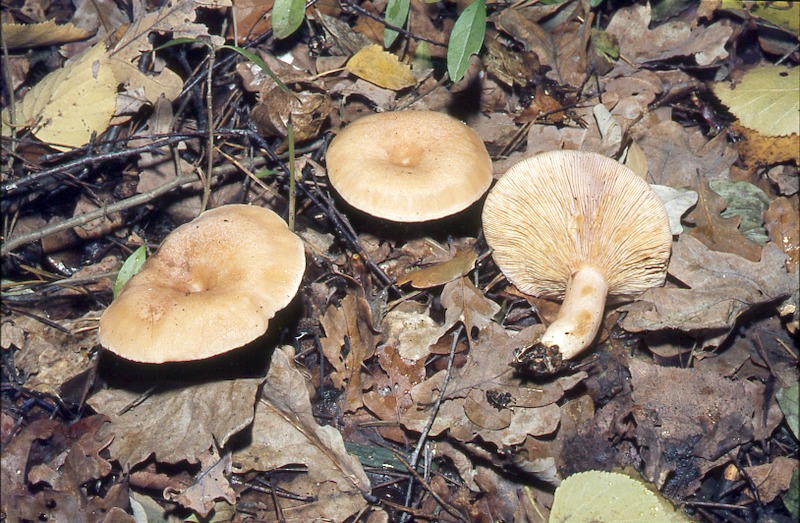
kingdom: Fungi
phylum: Basidiomycota
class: Agaricomycetes
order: Russulales
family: Russulaceae
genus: Lactarius
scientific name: Lactarius chrysorrheus
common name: Yellowdrop milkcap
